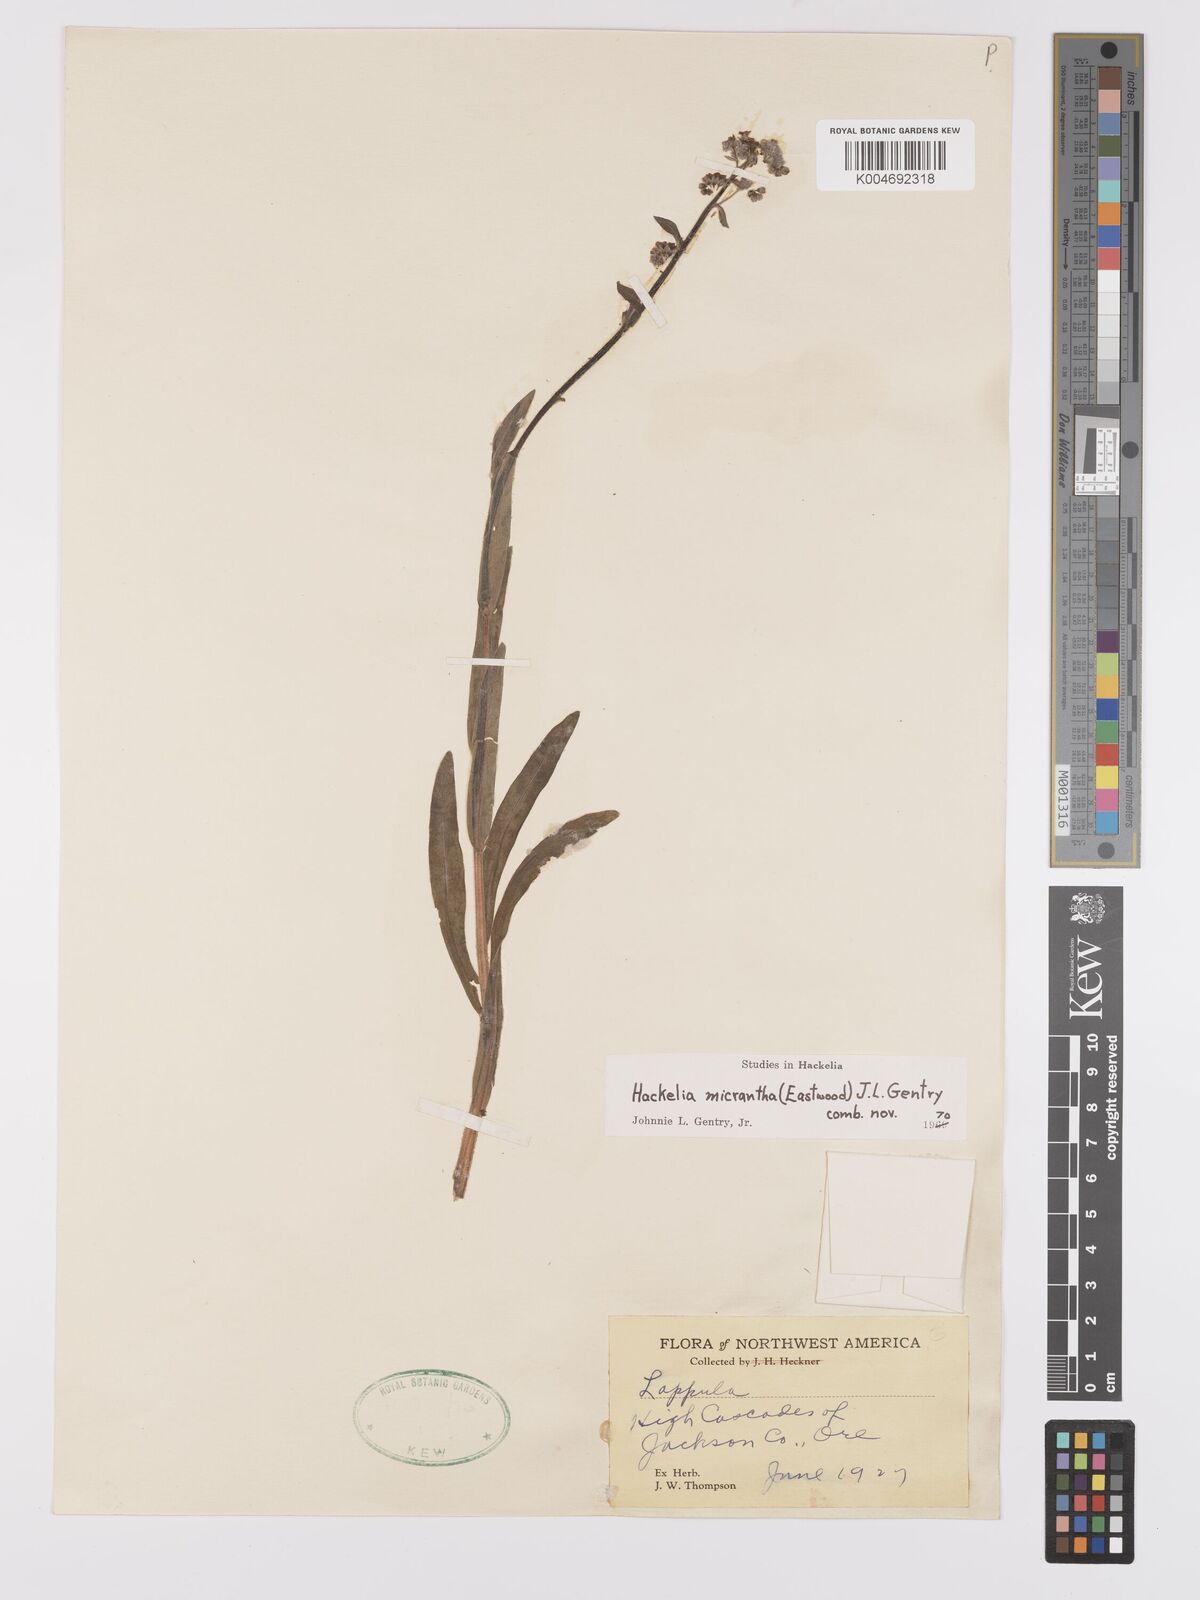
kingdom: Plantae
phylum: Tracheophyta
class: Magnoliopsida
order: Boraginales
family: Boraginaceae
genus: Hackelia
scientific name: Hackelia diffusa
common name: Spreading hackelia
